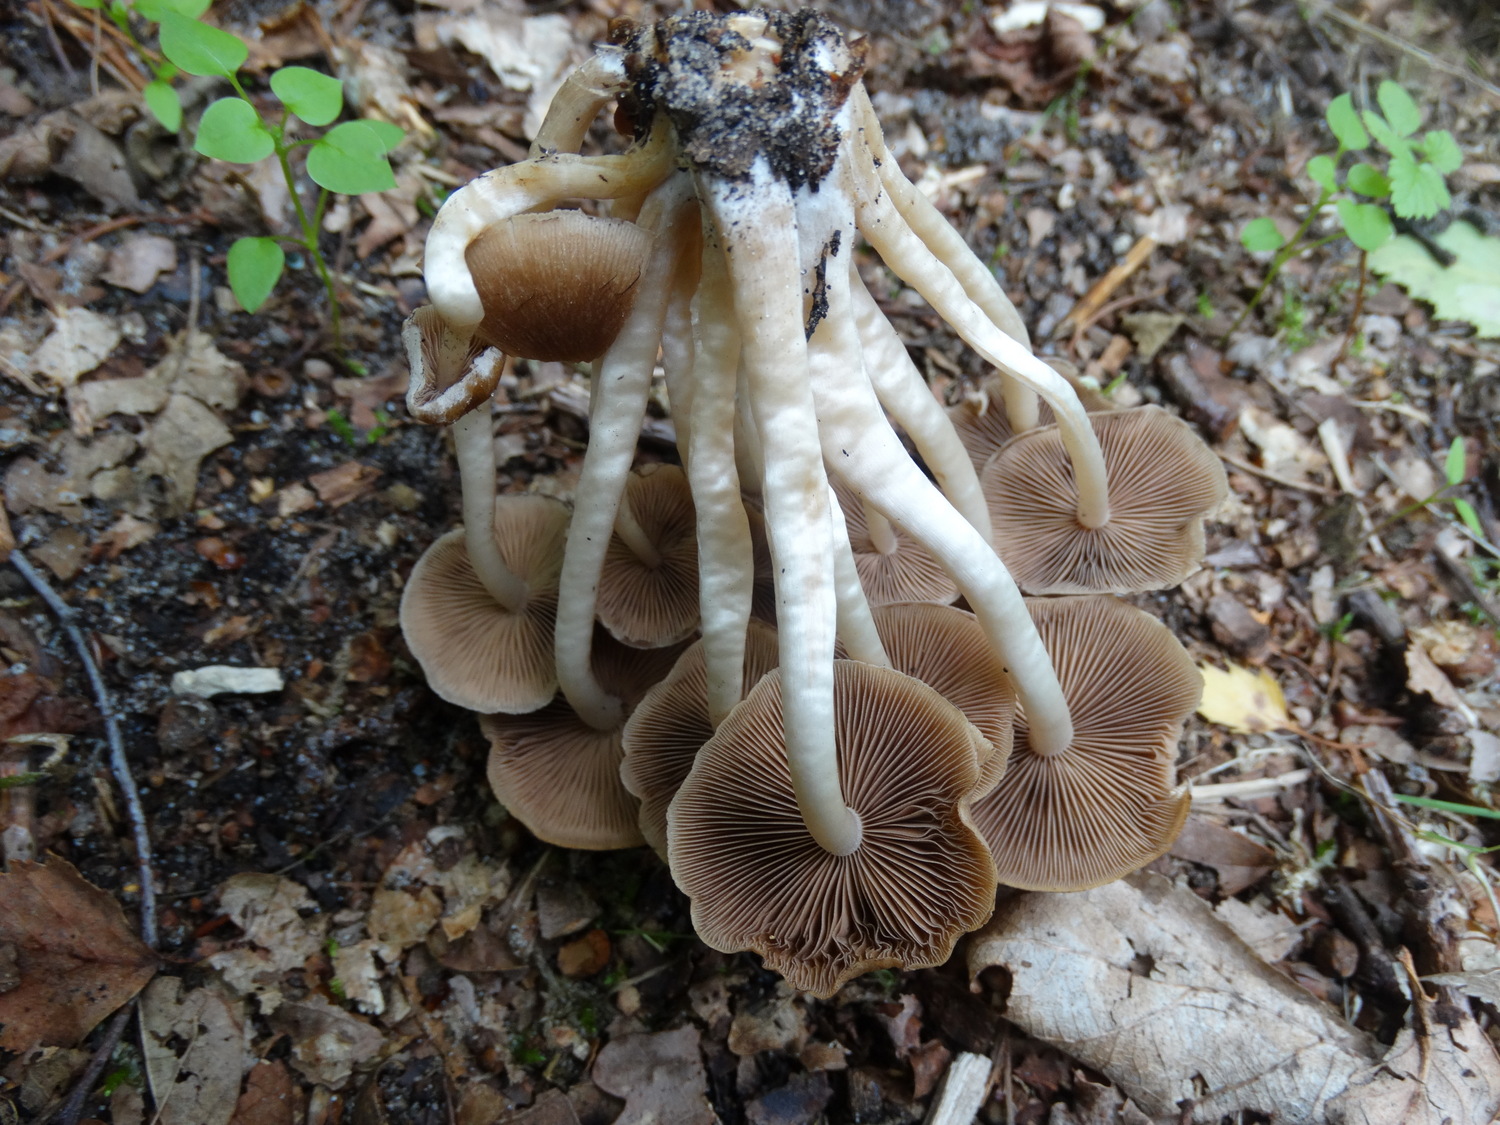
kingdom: Fungi
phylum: Basidiomycota
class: Agaricomycetes
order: Agaricales
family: Psathyrellaceae
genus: Psathyrella
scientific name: Psathyrella piluliformis
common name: lysstokket mørkhat
